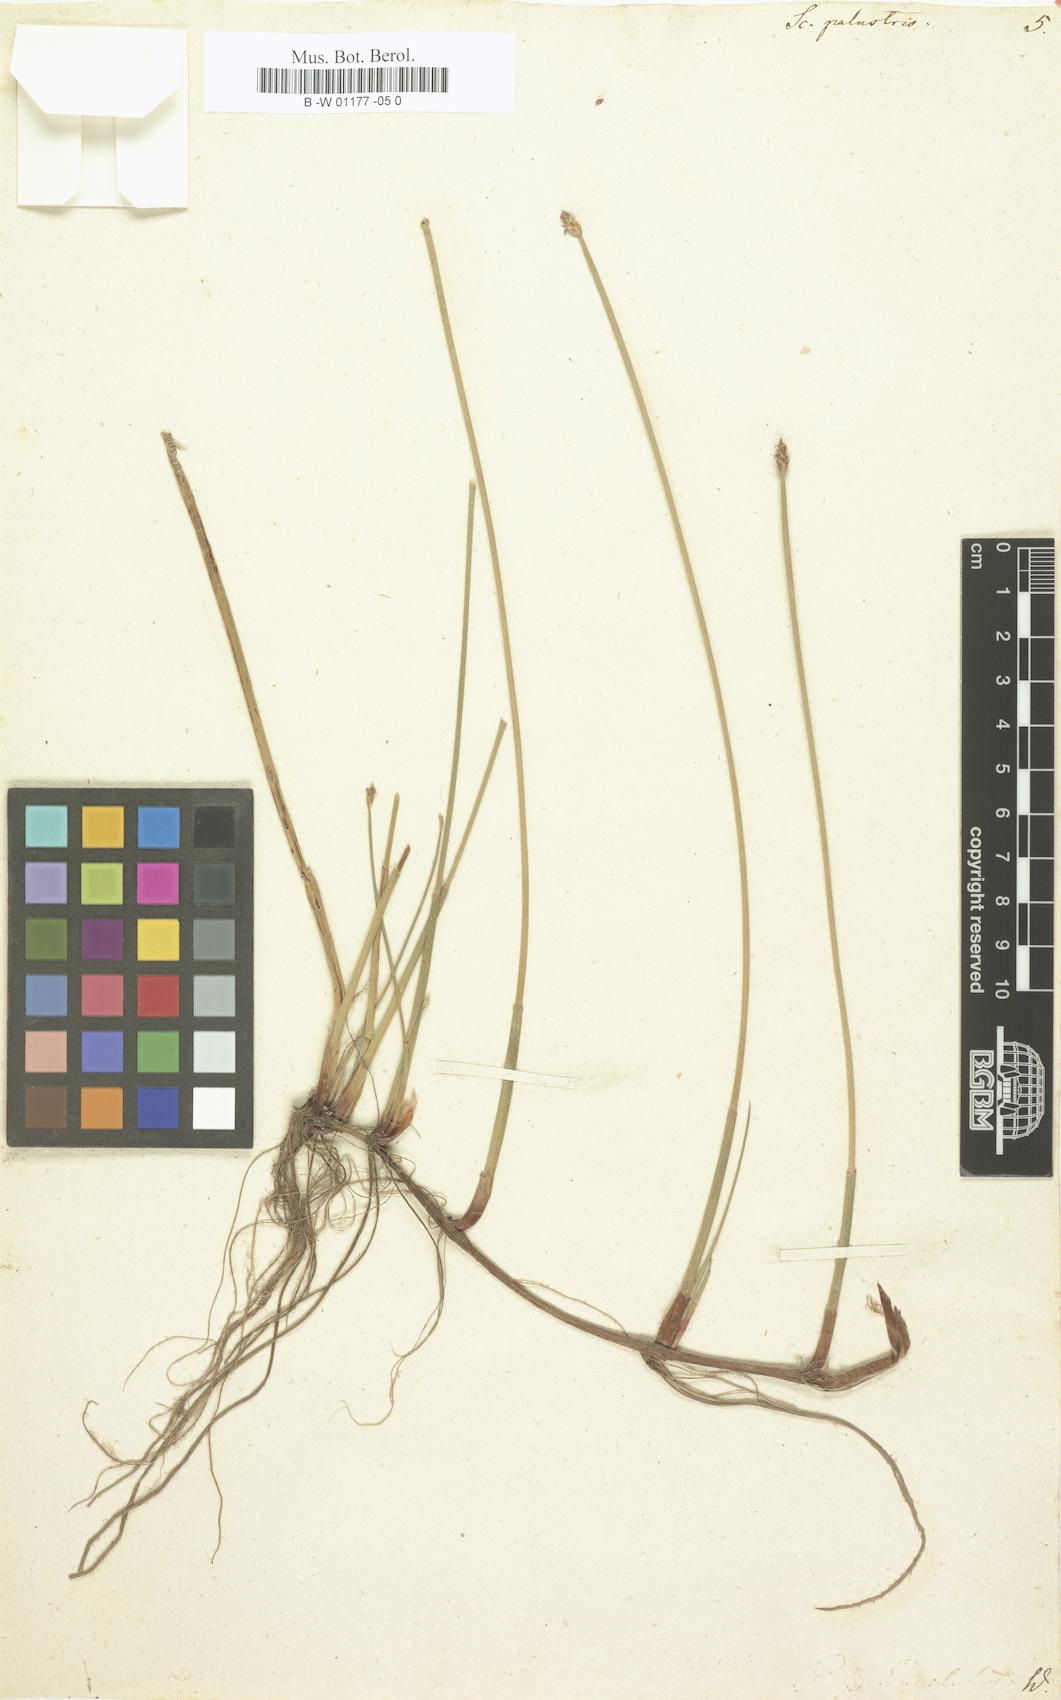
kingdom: Plantae
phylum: Tracheophyta
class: Liliopsida
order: Poales
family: Cyperaceae
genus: Eleocharis
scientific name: Eleocharis palustris
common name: Common spike-rush
